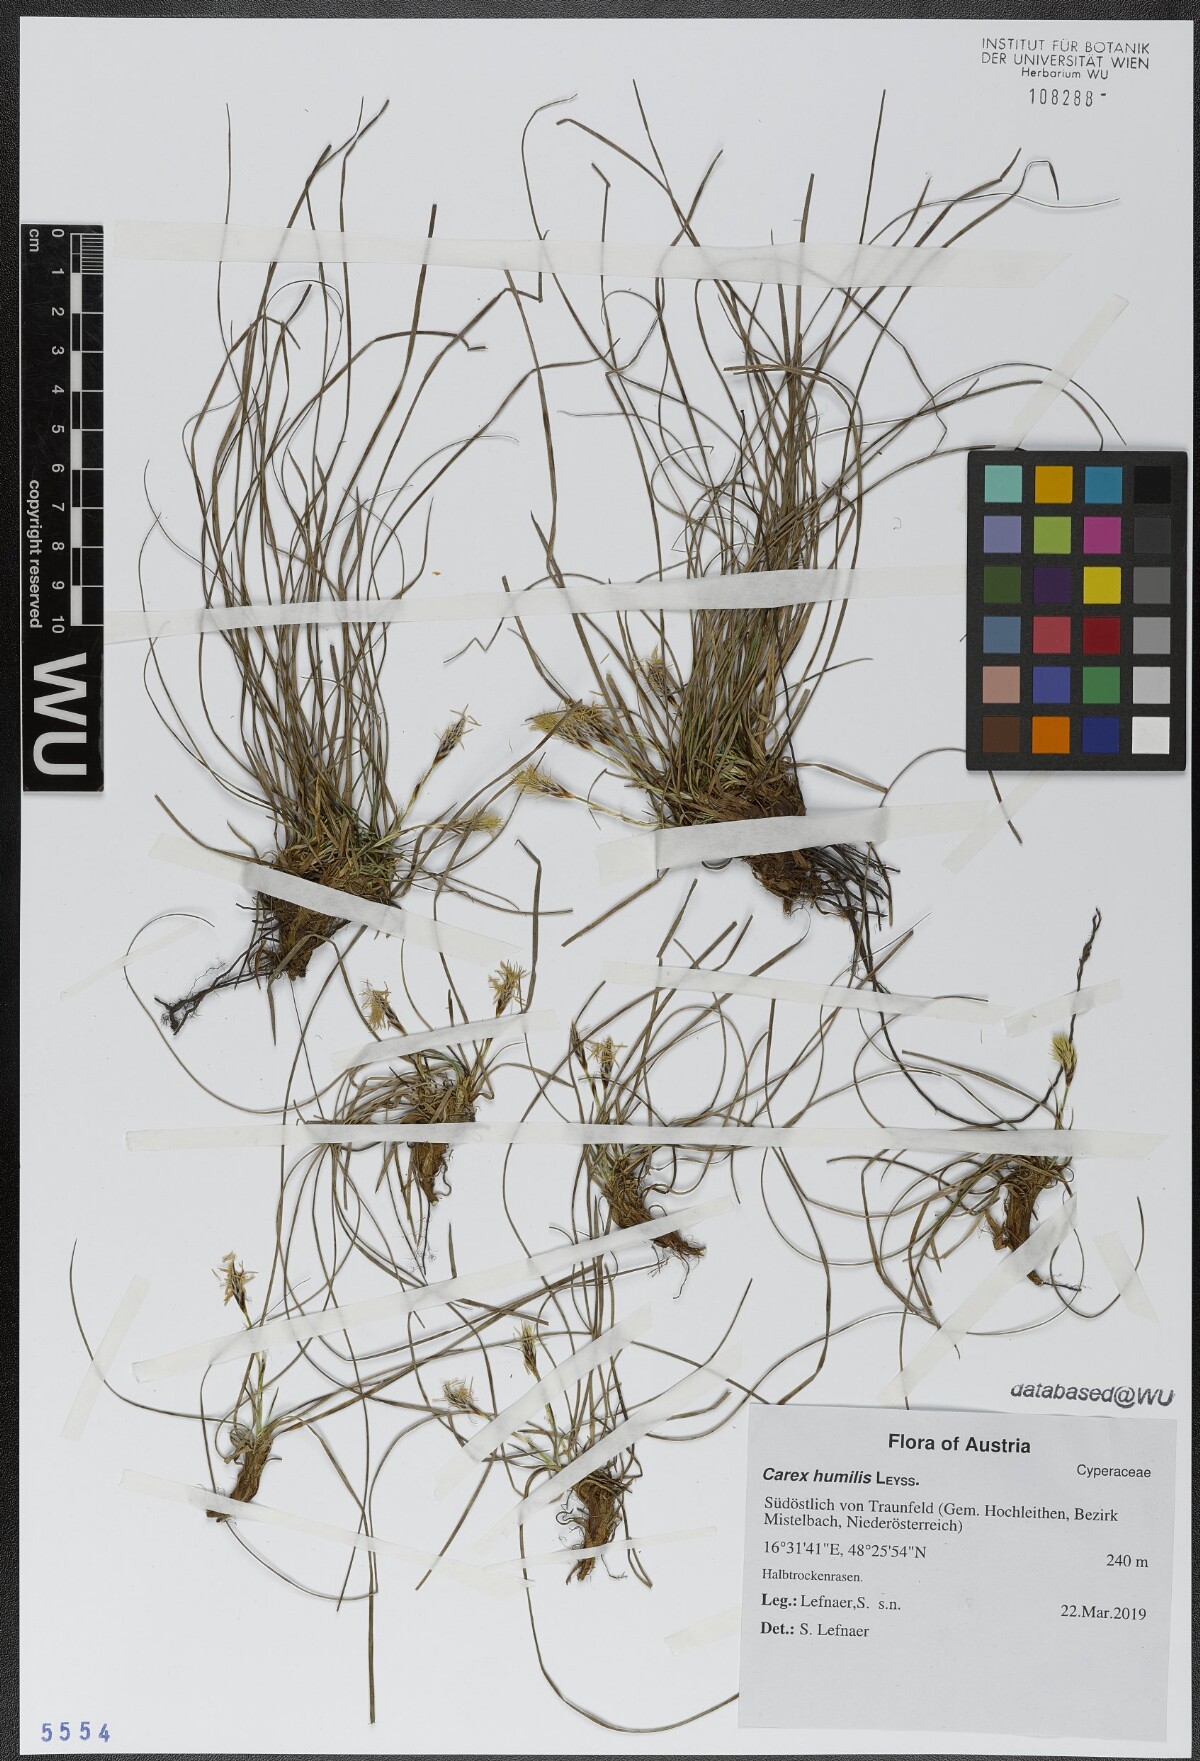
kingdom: Plantae
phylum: Tracheophyta
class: Liliopsida
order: Poales
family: Cyperaceae
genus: Carex
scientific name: Carex humilis
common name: Dwarf sedge
